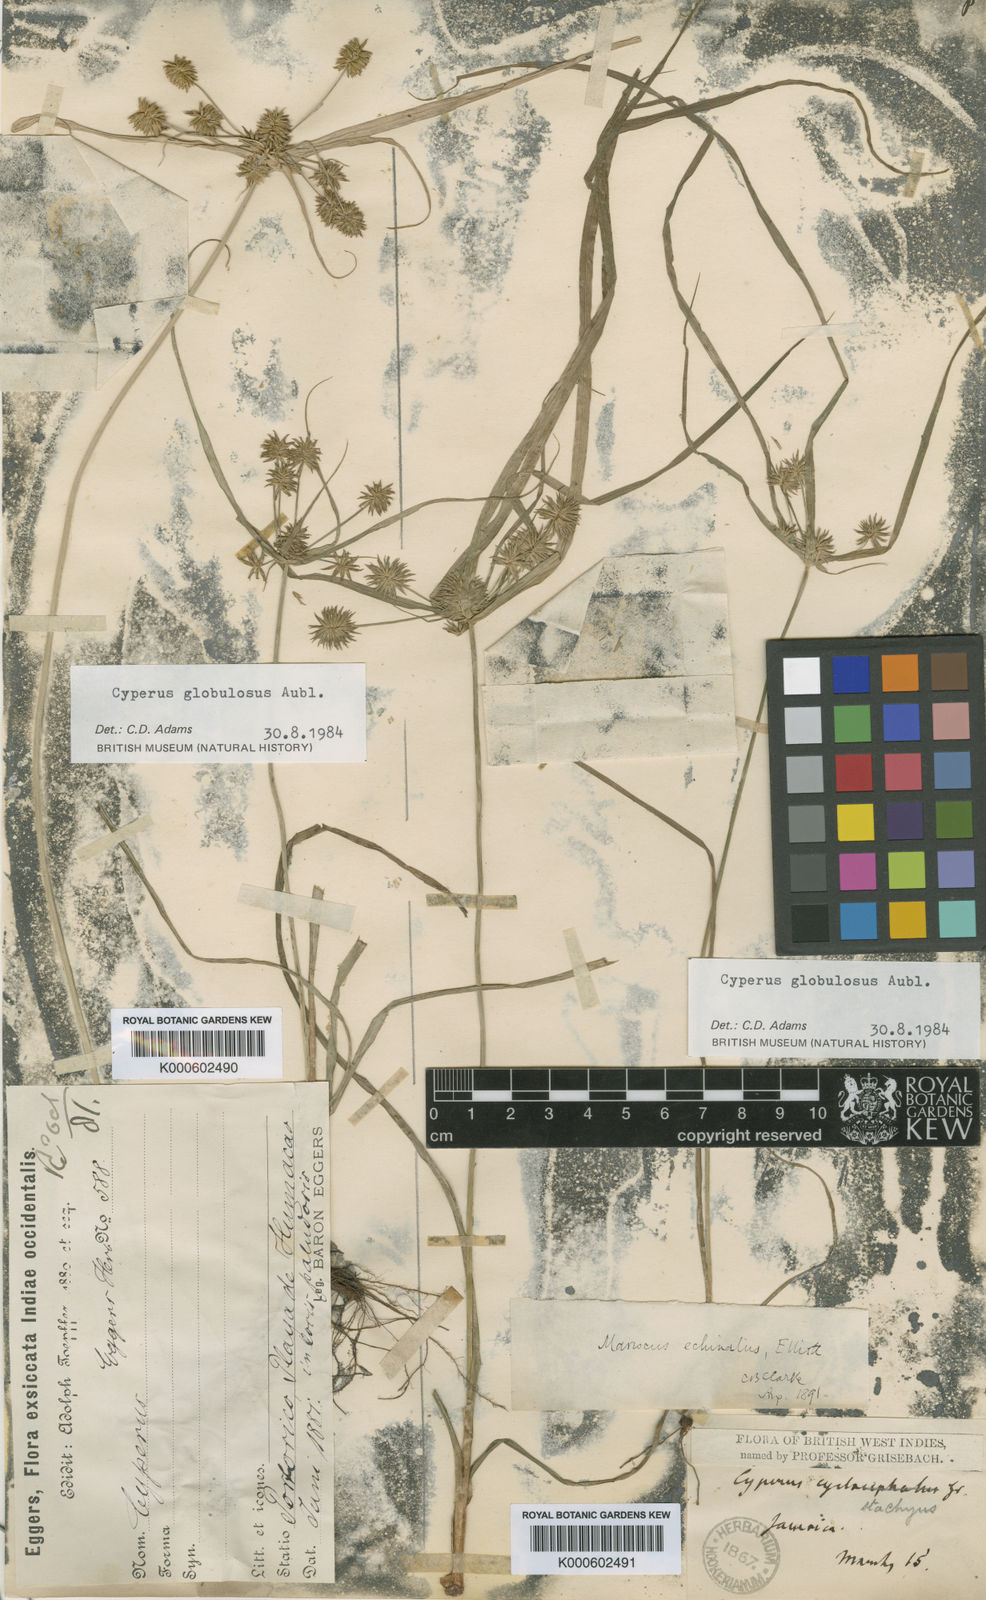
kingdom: Plantae
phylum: Tracheophyta
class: Liliopsida
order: Poales
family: Cyperaceae
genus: Cyperus
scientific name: Cyperus luzulae
